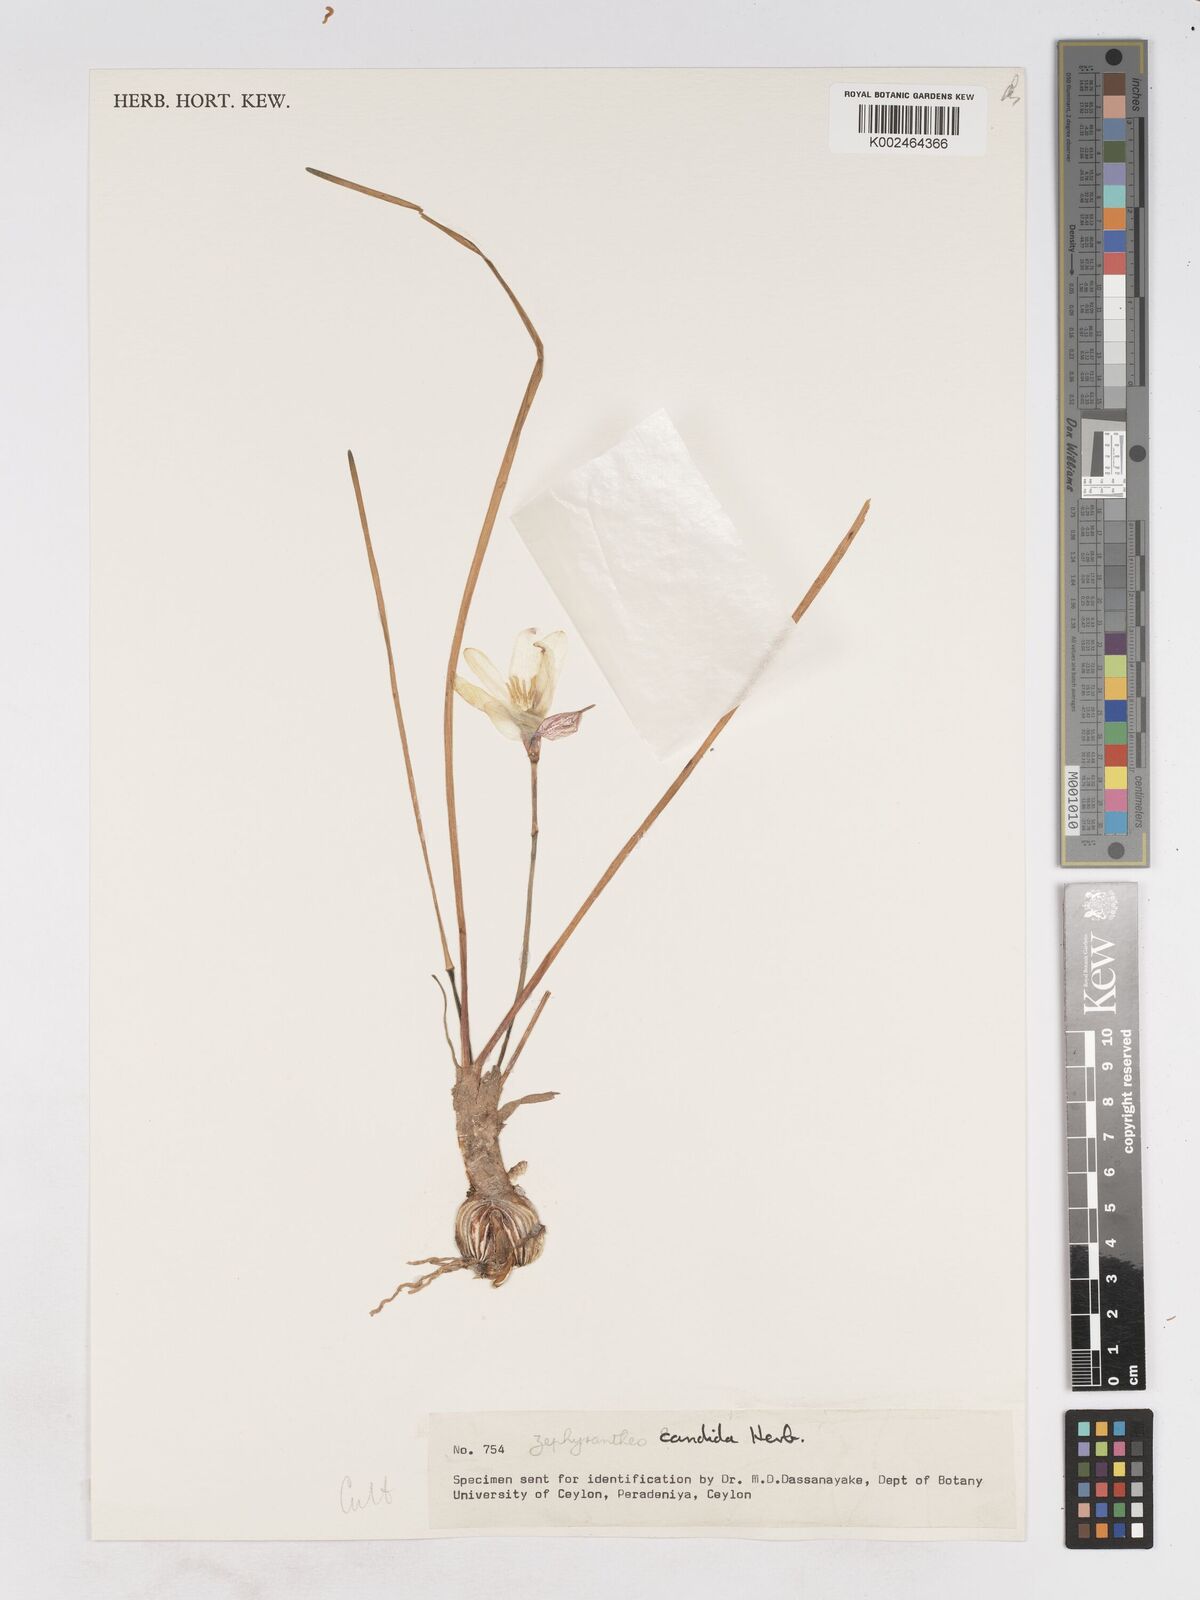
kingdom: Plantae
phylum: Tracheophyta
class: Liliopsida
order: Asparagales
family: Amaryllidaceae
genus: Zephyranthes
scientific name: Zephyranthes candida
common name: Autumn zephyrlily
